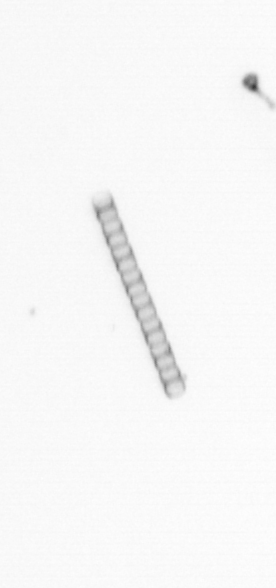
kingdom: Chromista
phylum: Ochrophyta
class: Bacillariophyceae
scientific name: Bacillariophyceae
